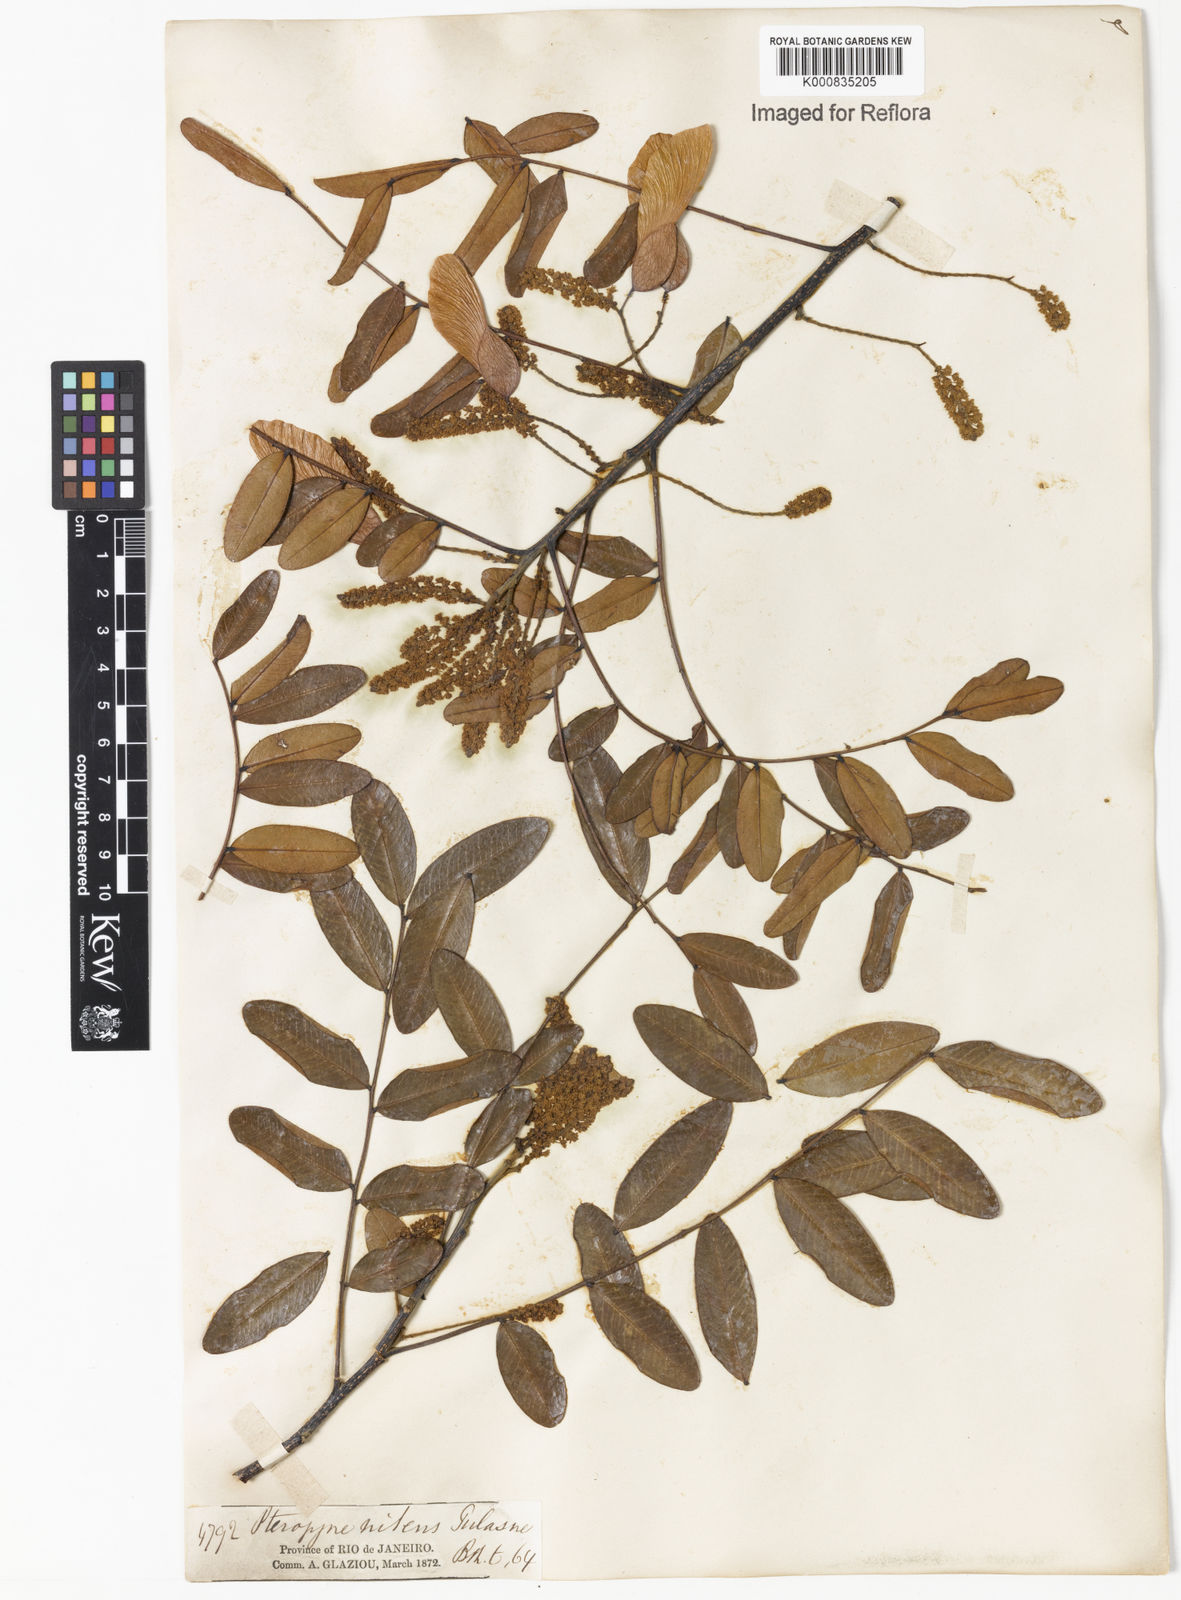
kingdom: Plantae
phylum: Tracheophyta
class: Magnoliopsida
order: Fabales
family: Fabaceae
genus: Pterogyne
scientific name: Pterogyne nitens
